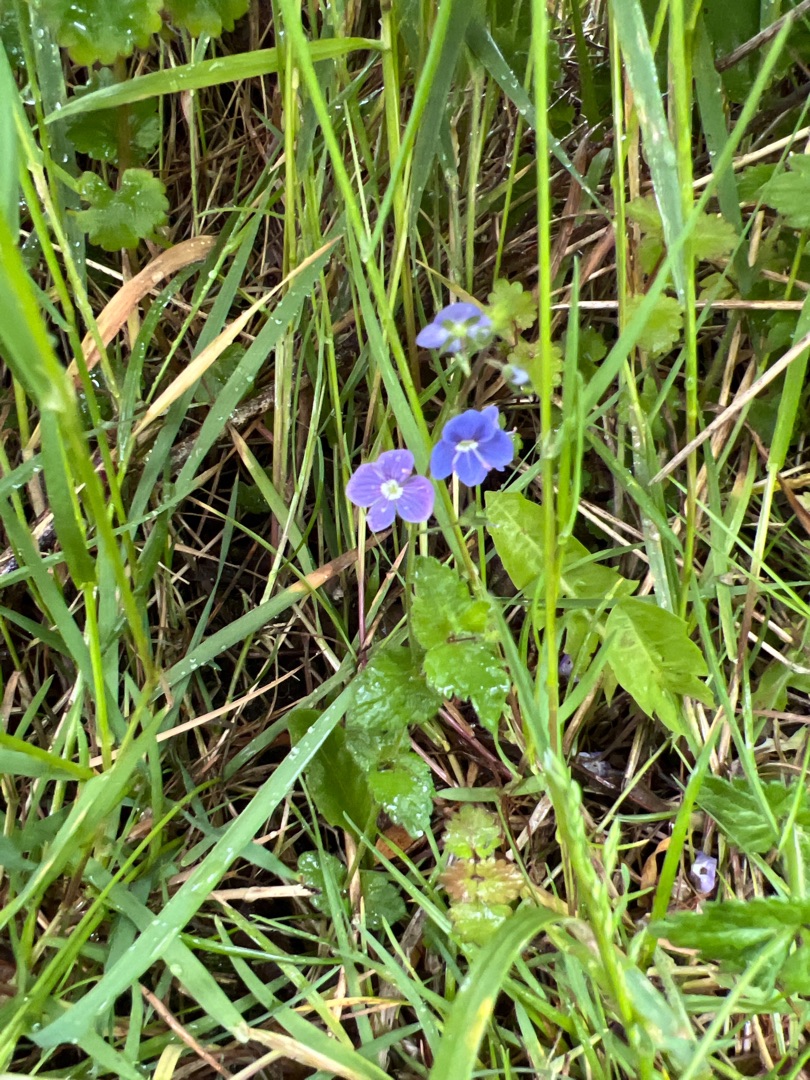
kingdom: Plantae
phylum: Tracheophyta
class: Magnoliopsida
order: Lamiales
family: Plantaginaceae
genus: Veronica
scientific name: Veronica chamaedrys
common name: Tveskægget ærenpris
